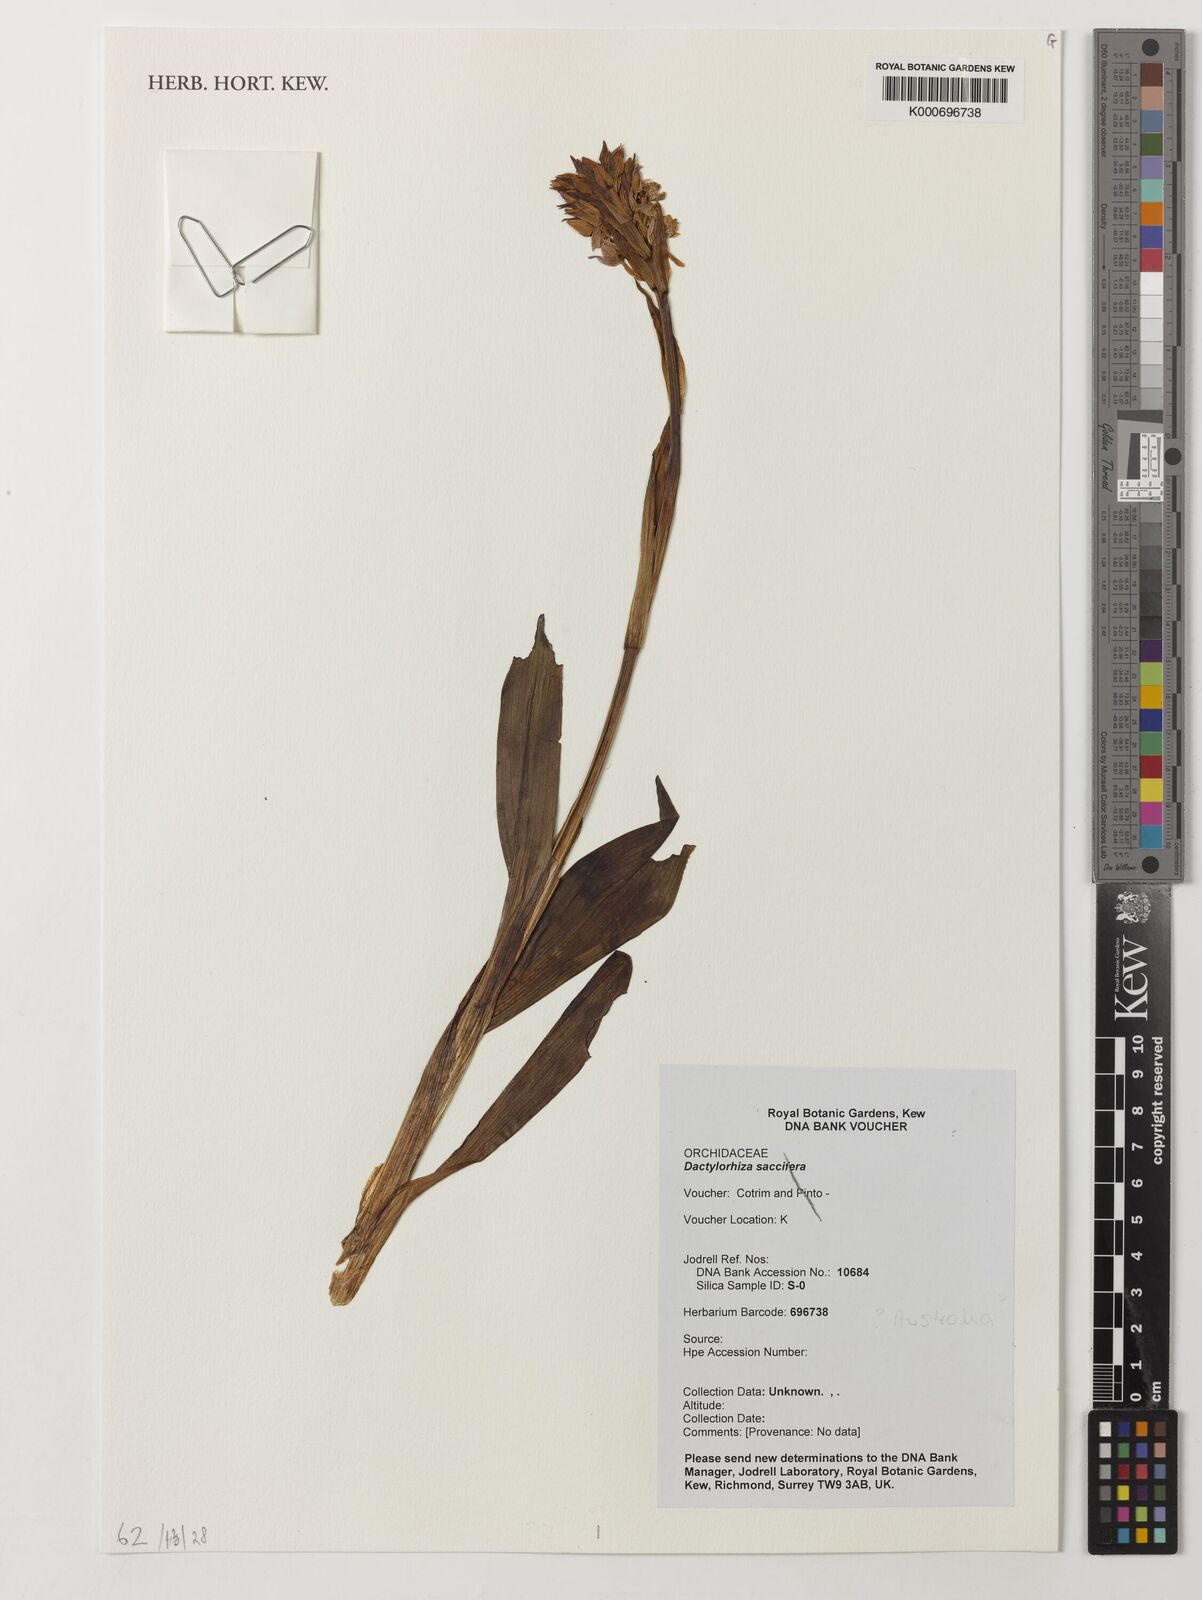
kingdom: Plantae
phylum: Tracheophyta
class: Liliopsida
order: Asparagales
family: Orchidaceae
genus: Dactylorhiza
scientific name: Dactylorhiza maculata
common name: Heath spotted-orchid
